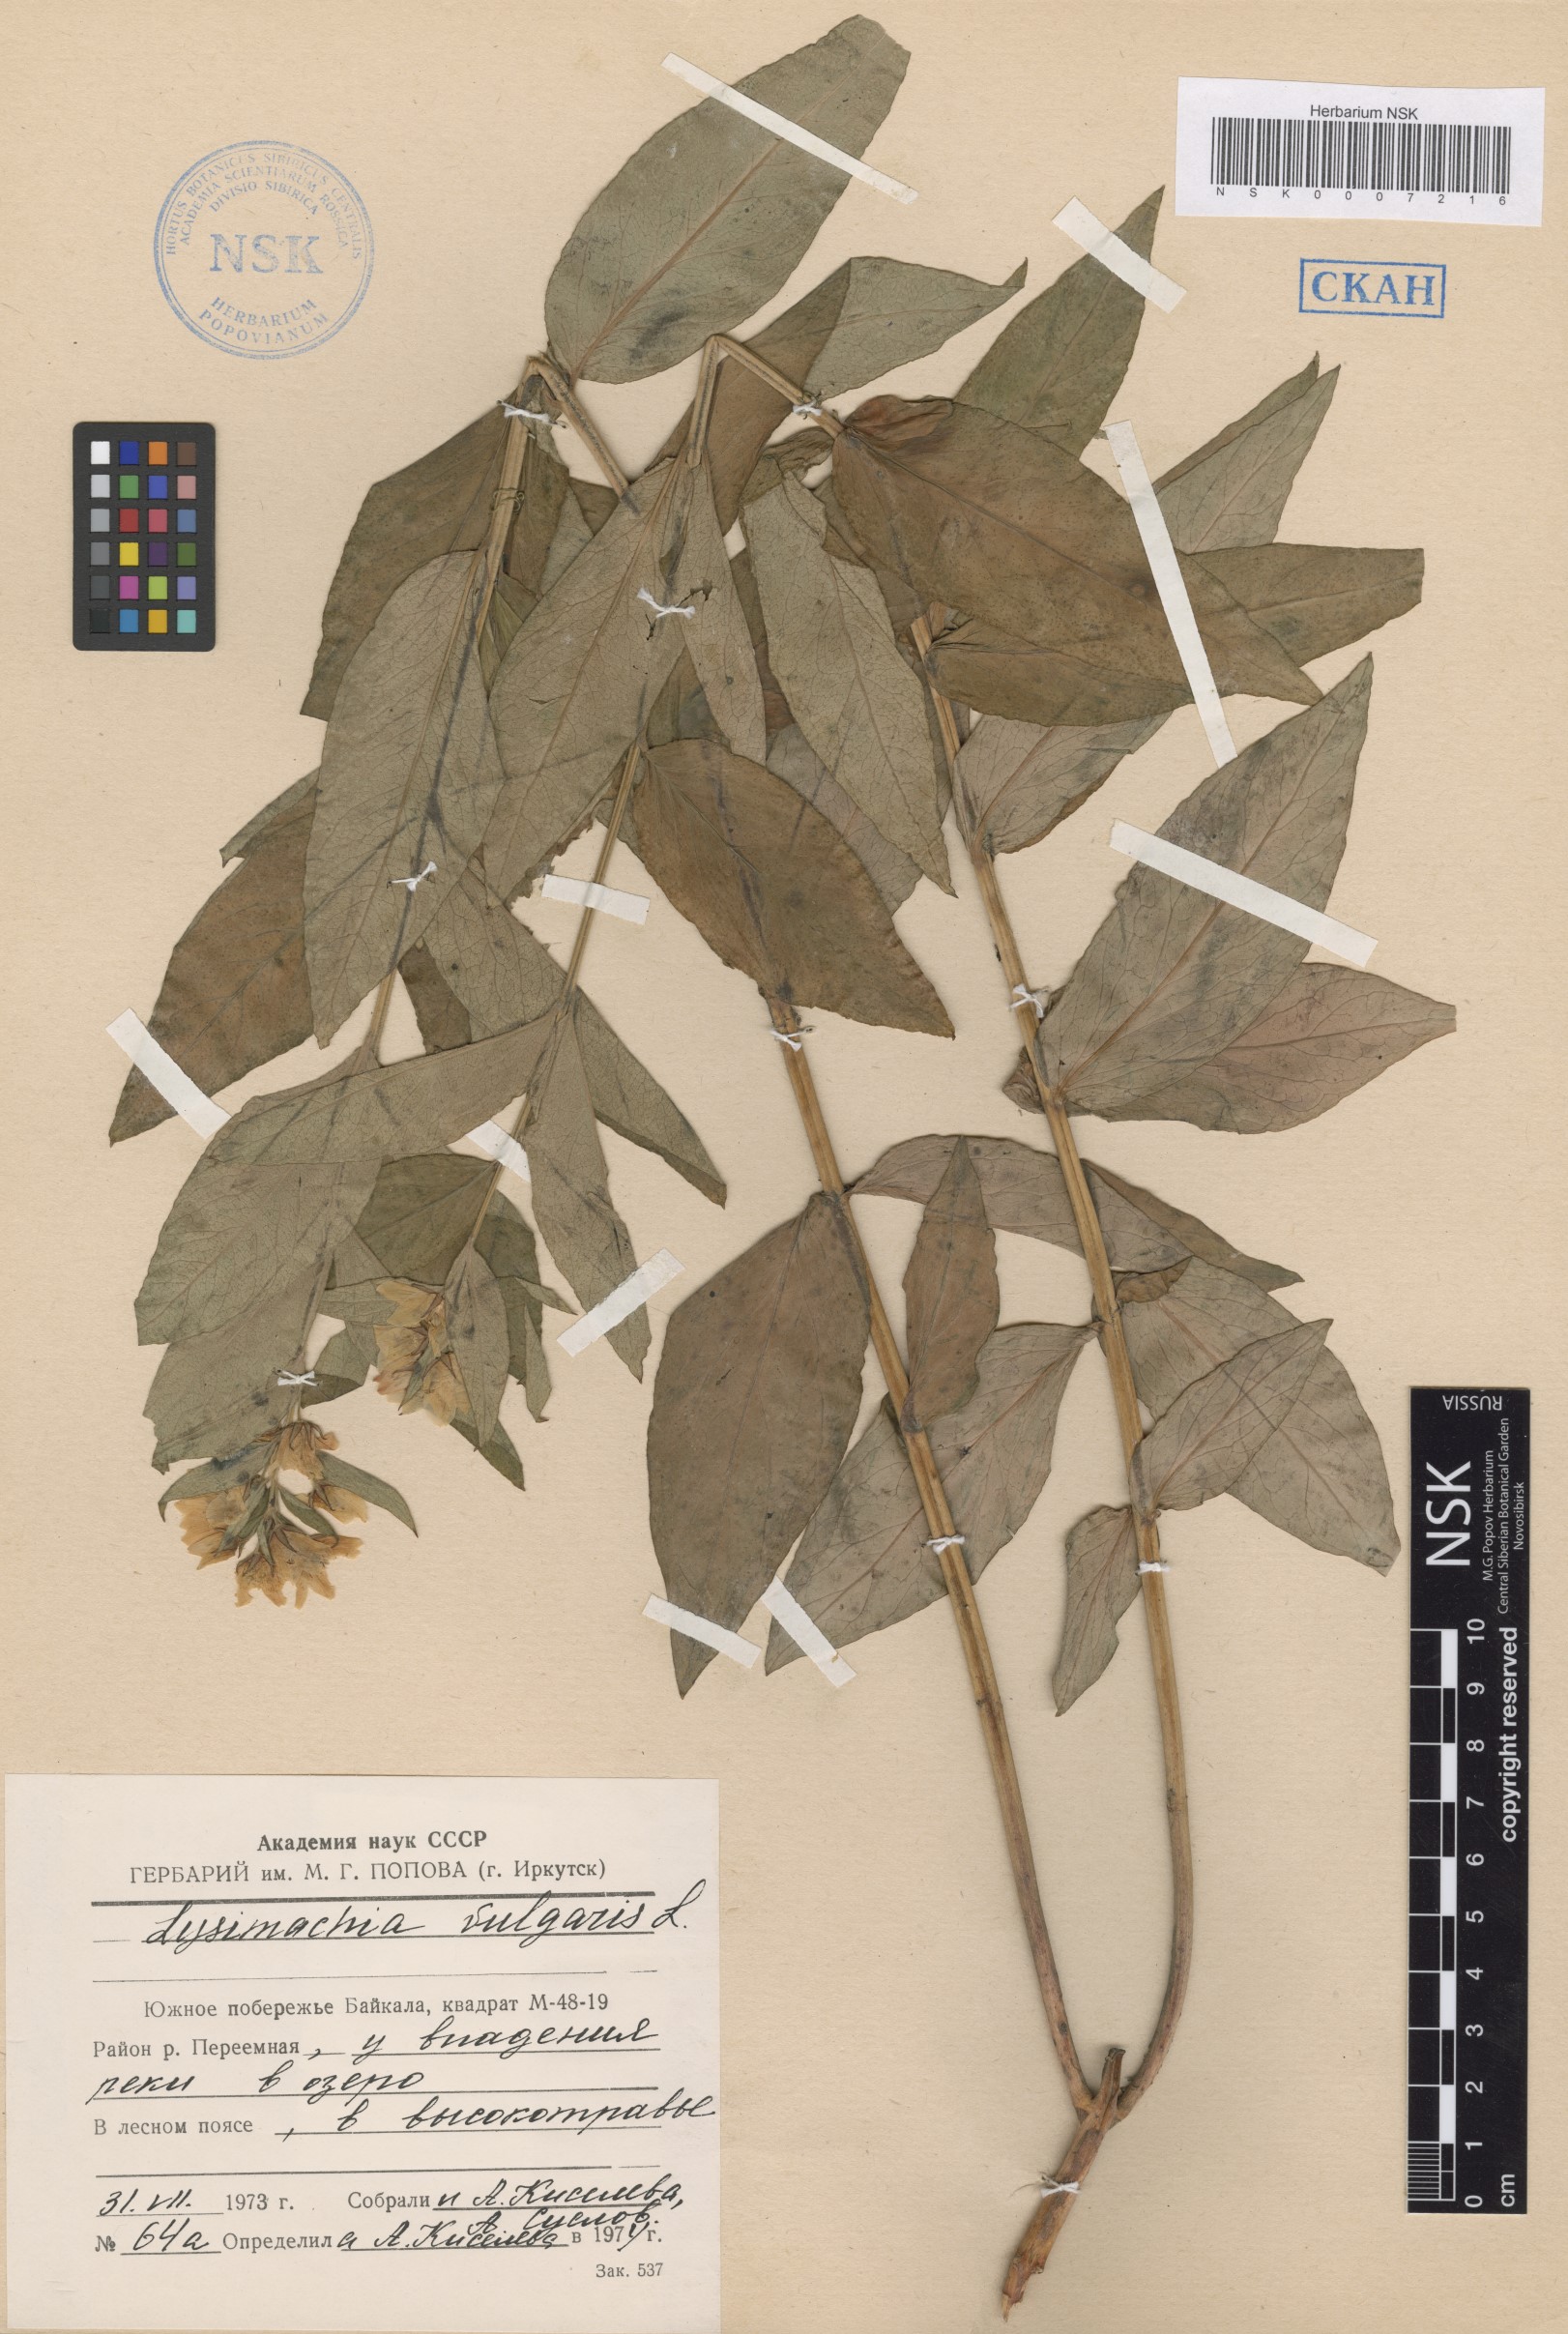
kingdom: Plantae
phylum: Tracheophyta
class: Magnoliopsida
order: Ericales
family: Primulaceae
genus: Lysimachia
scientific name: Lysimachia vulgaris
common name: Yellow loosestrife
